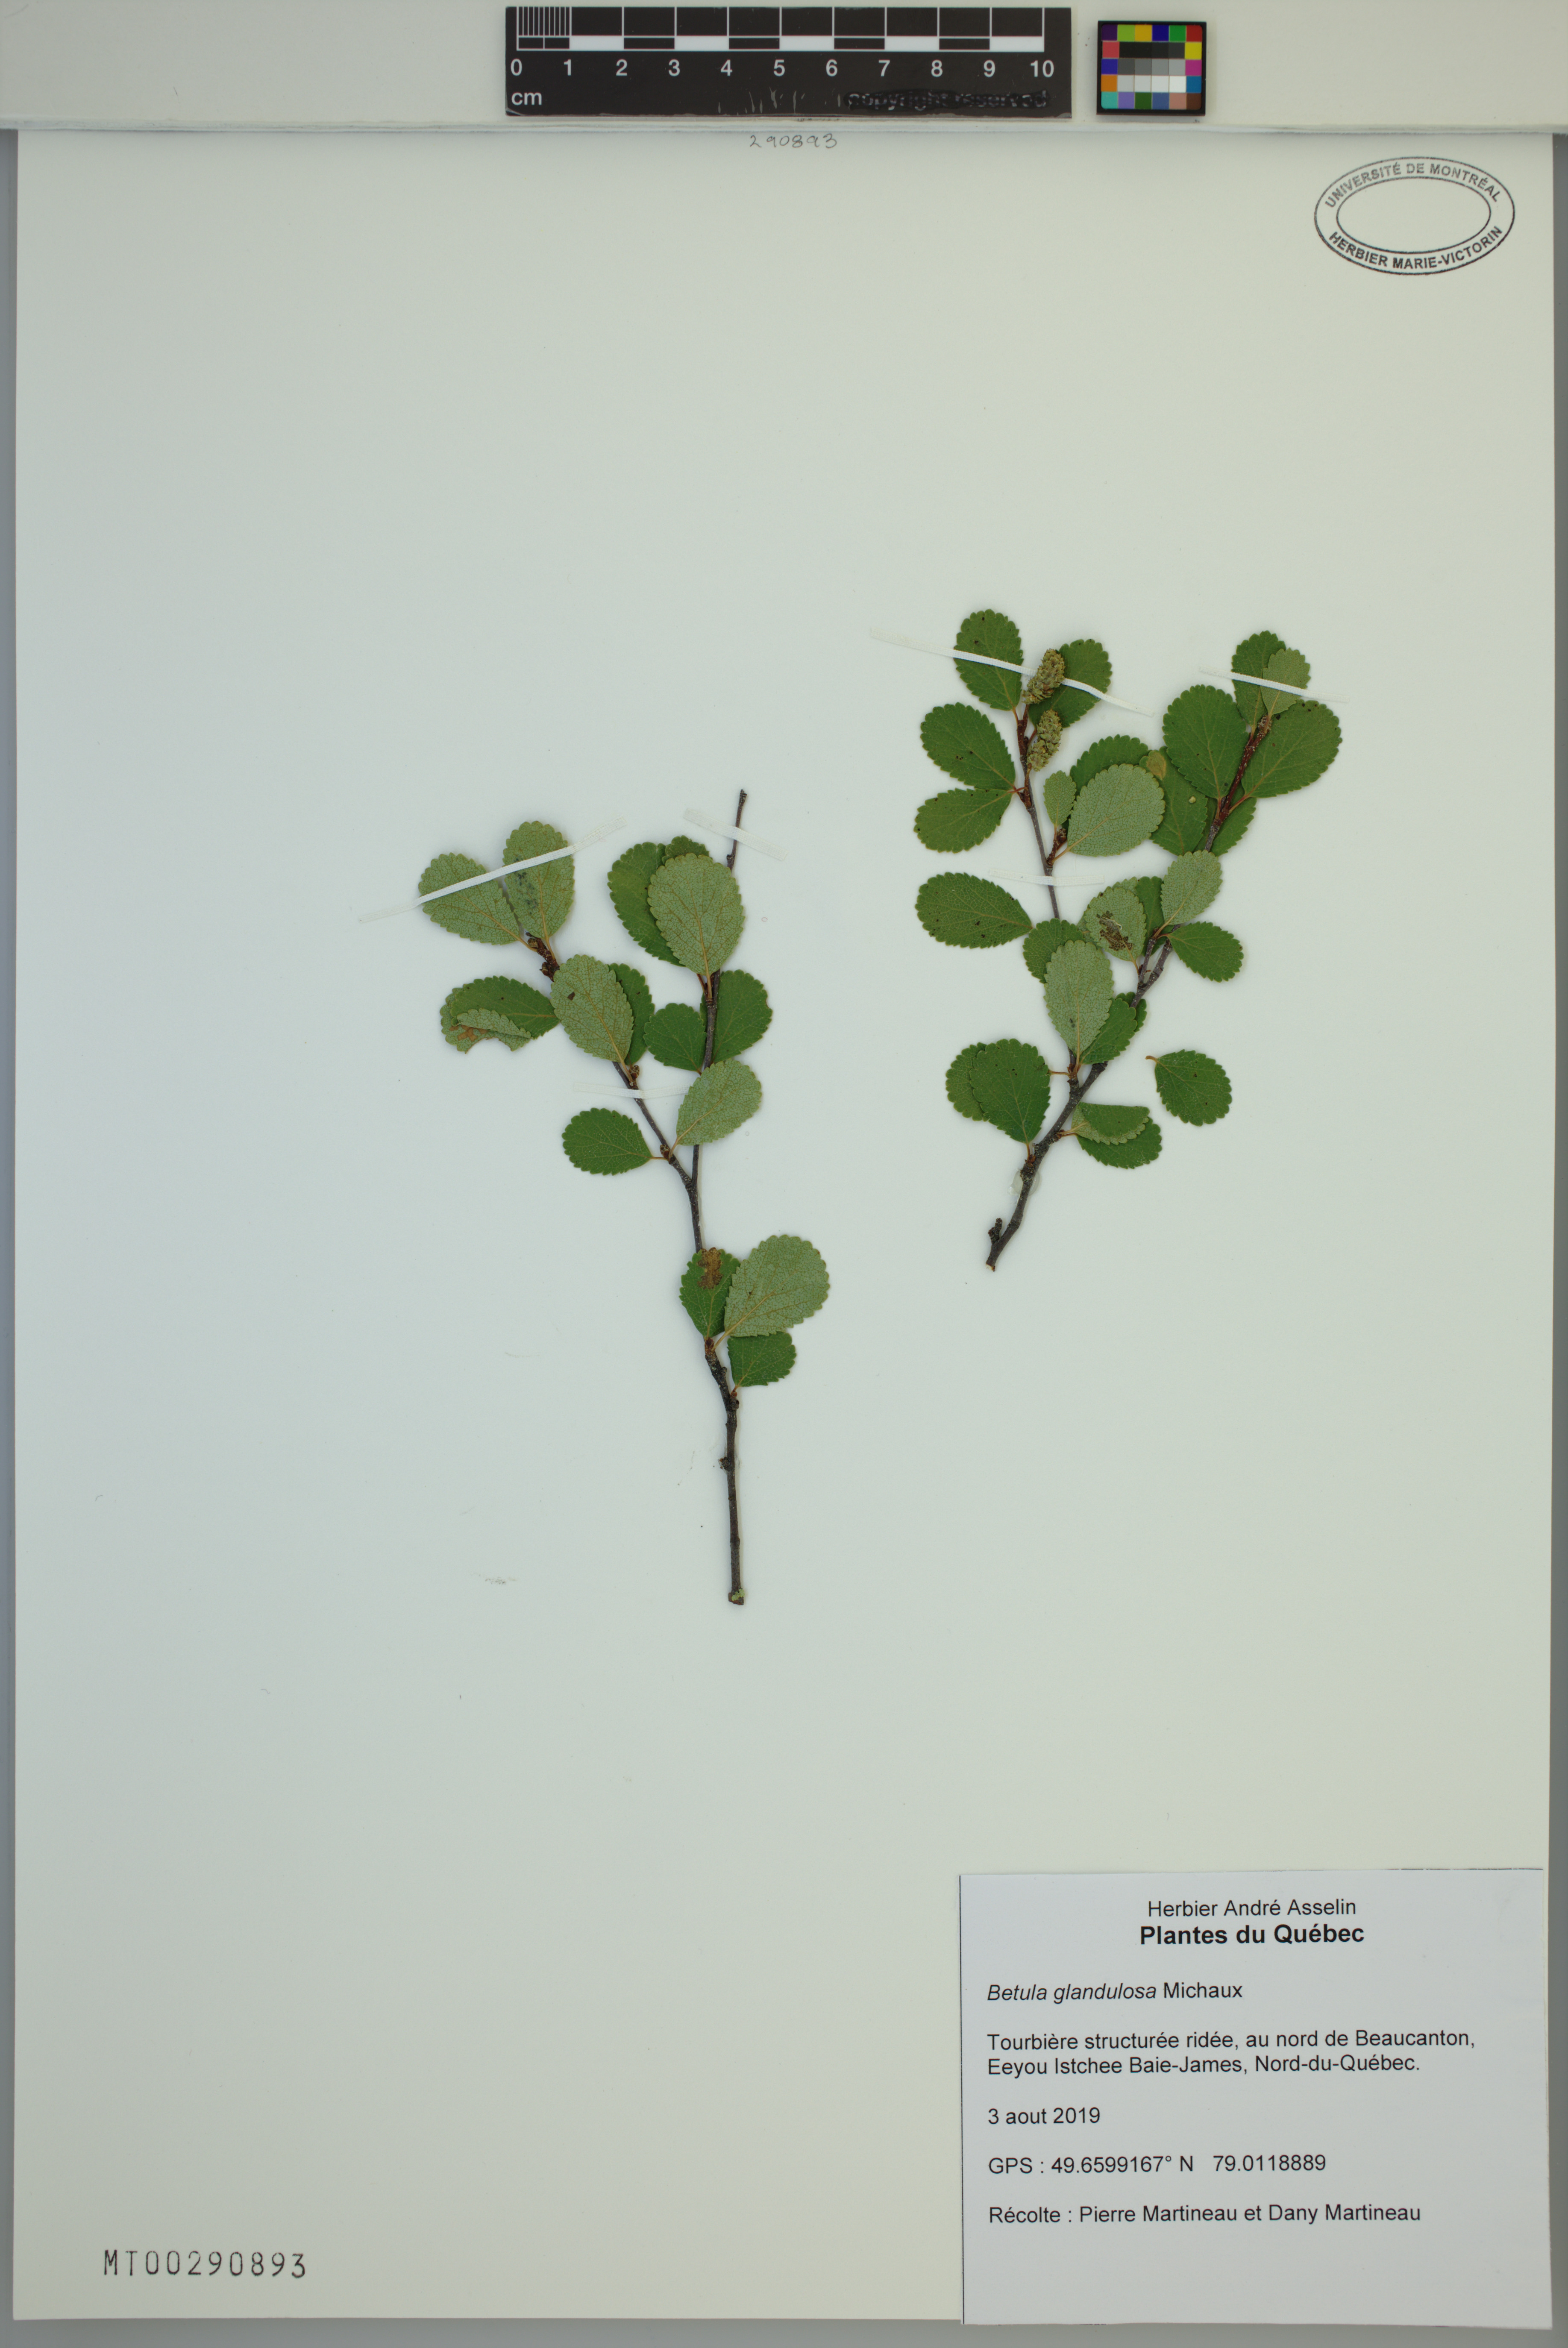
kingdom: Plantae
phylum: Tracheophyta
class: Magnoliopsida
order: Fagales
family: Betulaceae
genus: Betula
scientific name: Betula glandulosa
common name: Dwarf birch
